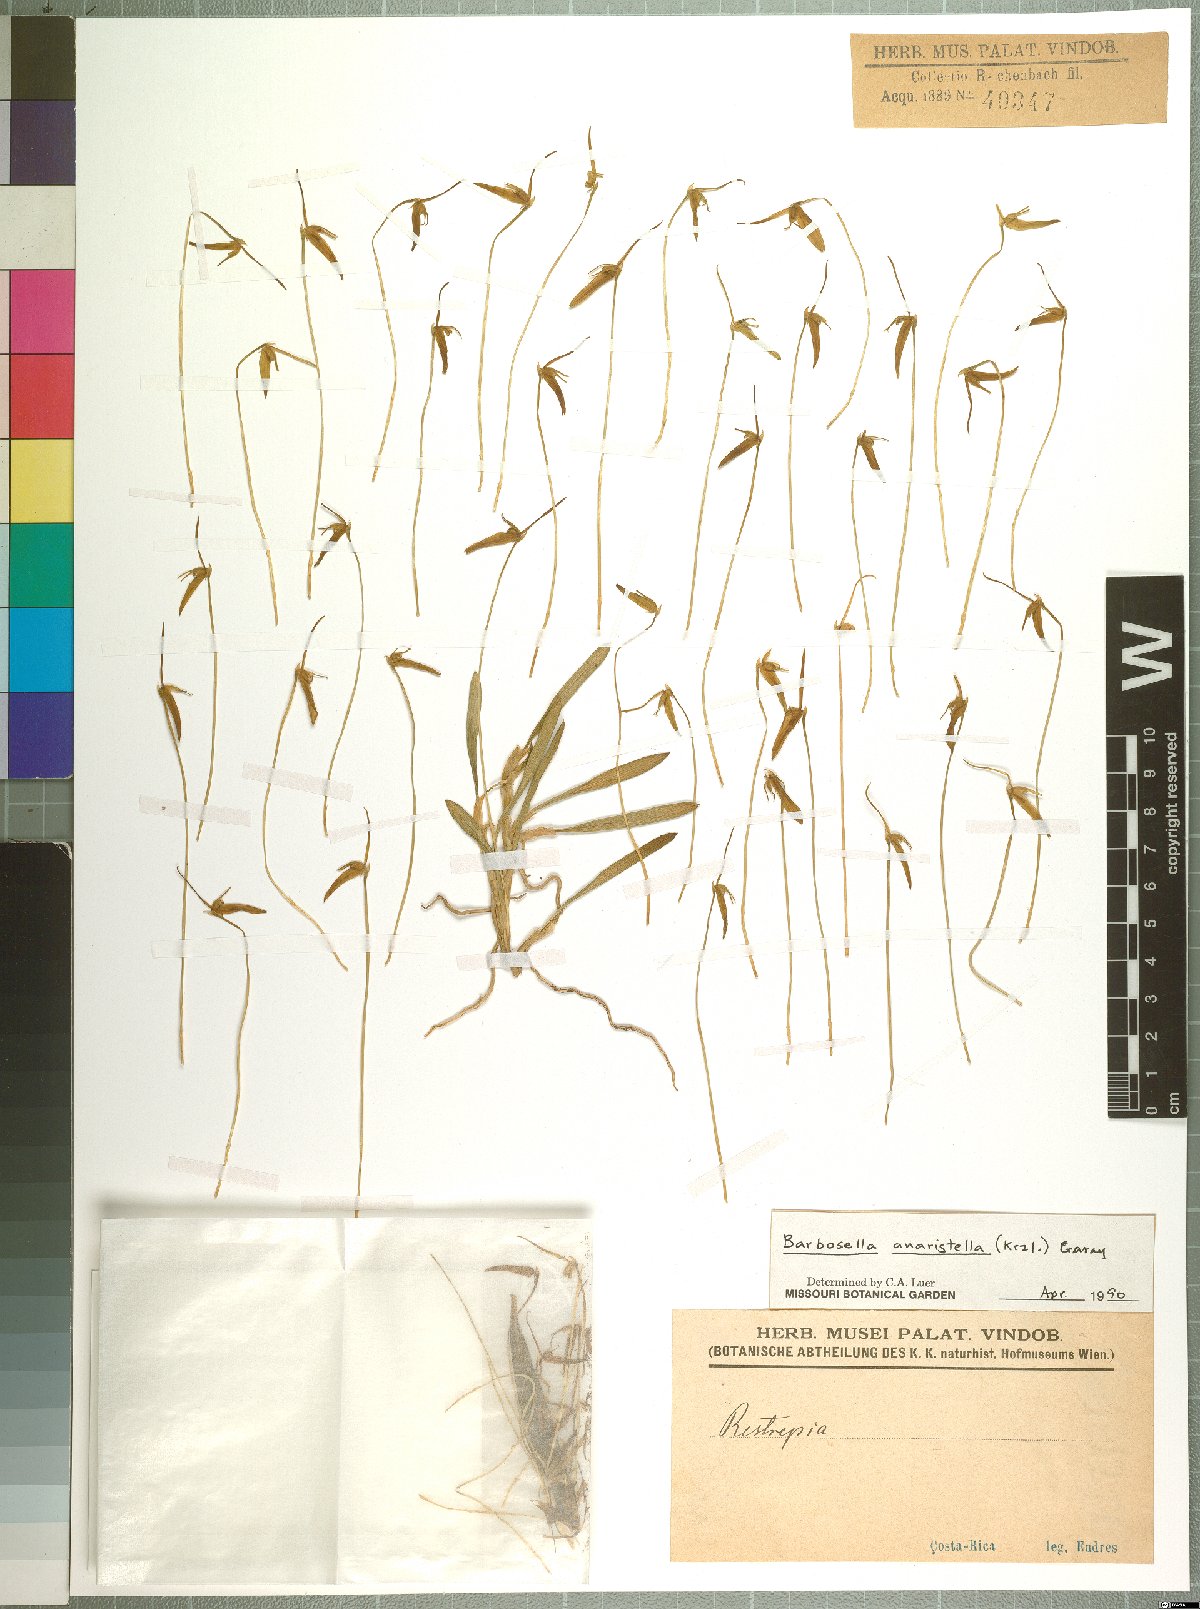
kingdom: Plantae
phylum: Tracheophyta
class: Liliopsida
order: Asparagales
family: Orchidaceae
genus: Barbosella
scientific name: Barbosella dolichorhiza
